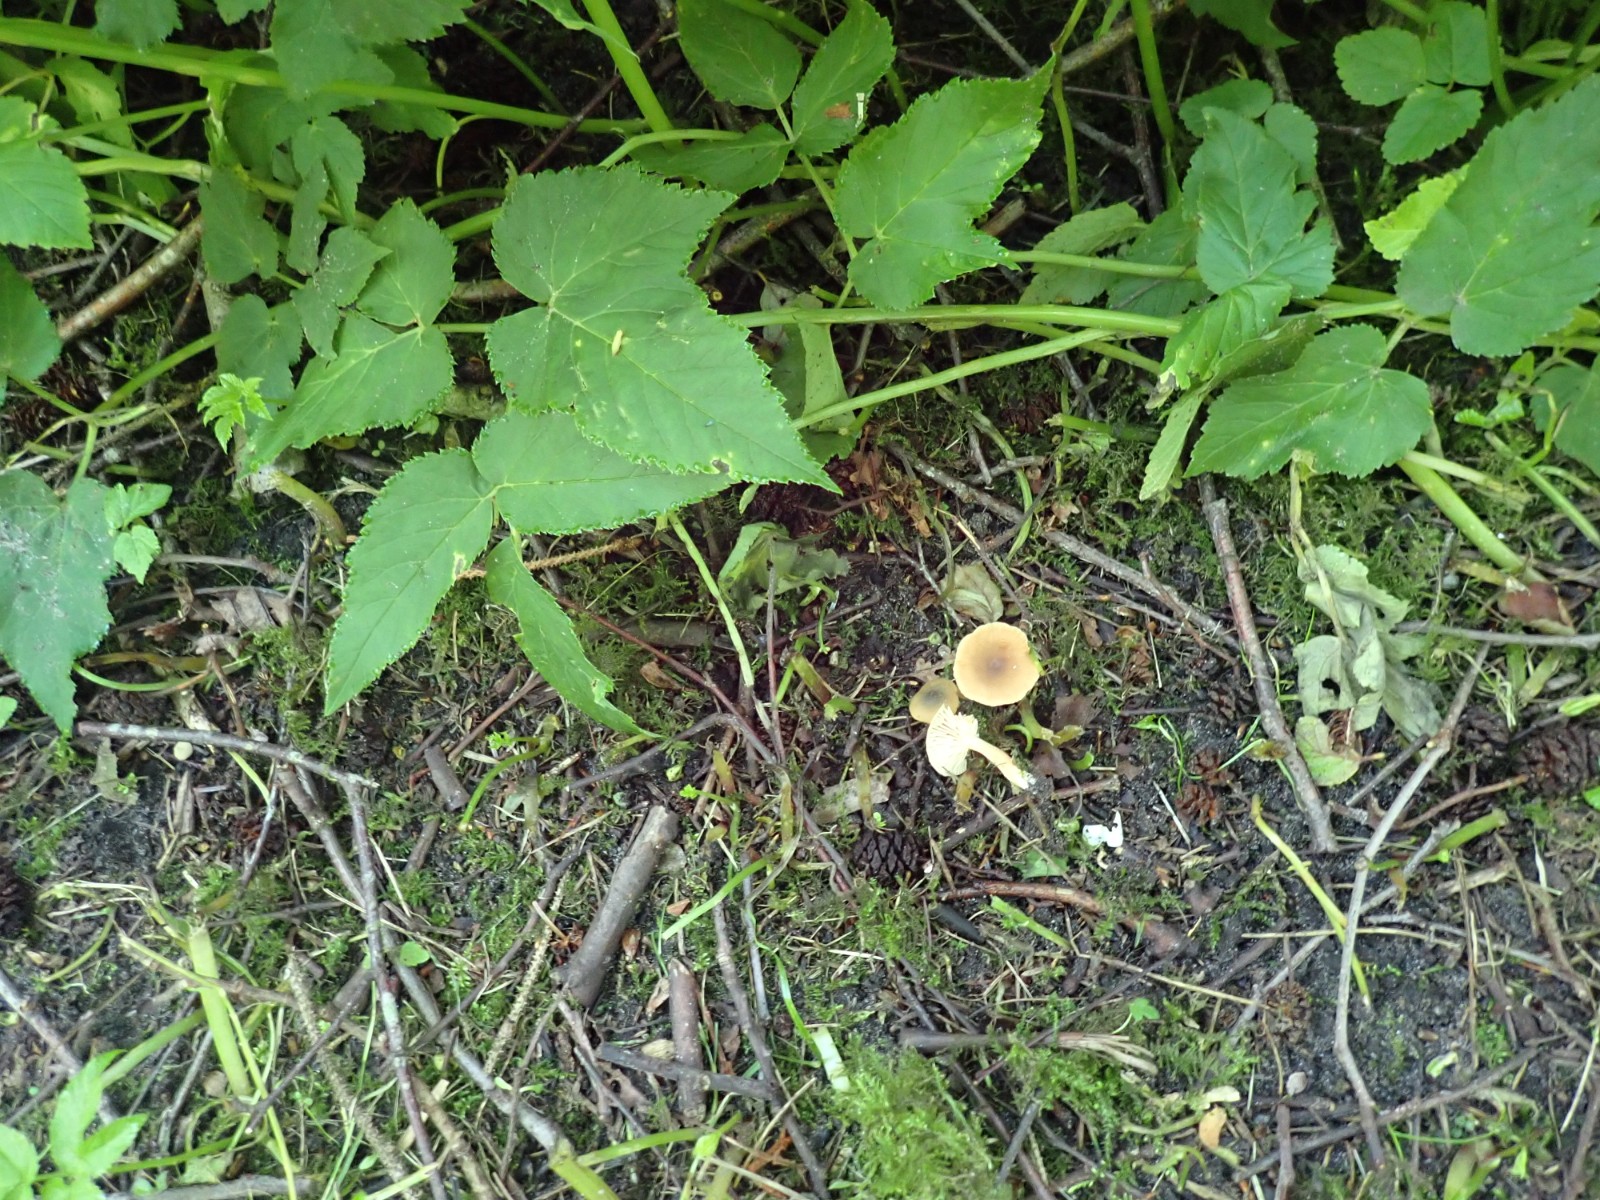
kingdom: Fungi
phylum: Basidiomycota
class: Agaricomycetes
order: Russulales
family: Russulaceae
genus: Lactarius
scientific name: Lactarius cyathuliformis
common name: mørkøjet mælkehat
